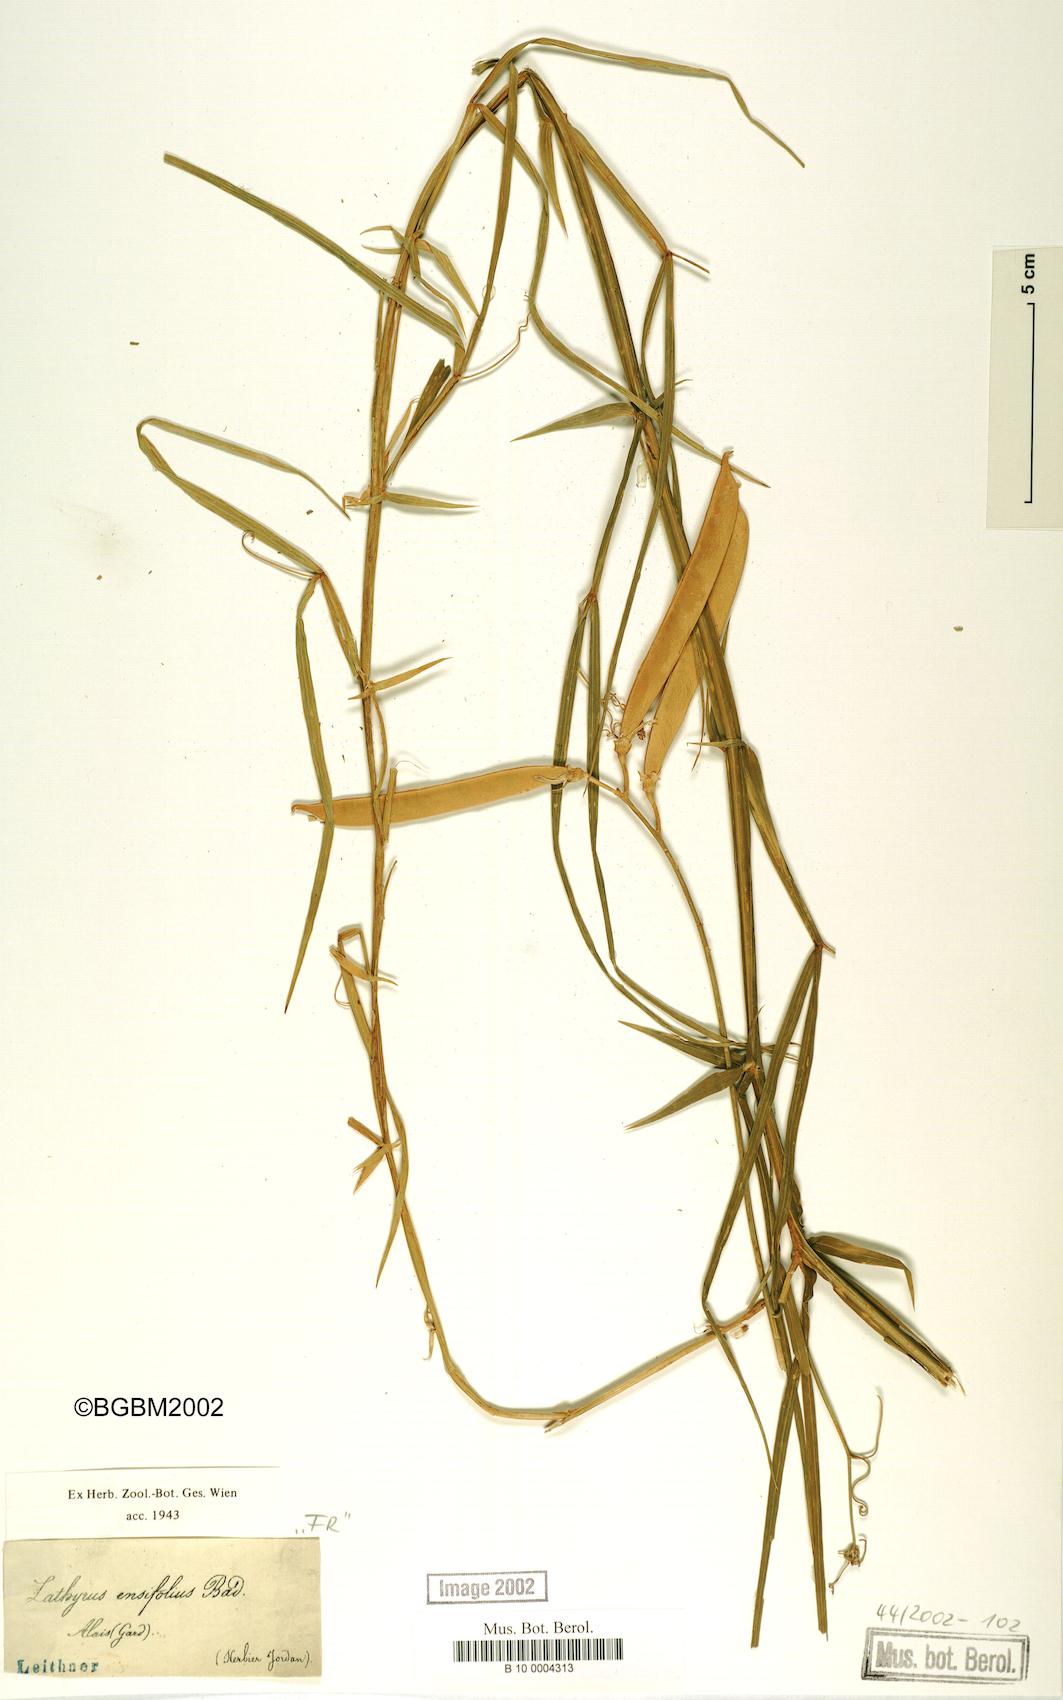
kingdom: Plantae
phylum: Tracheophyta
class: Magnoliopsida
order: Fabales
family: Fabaceae
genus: Lathyrus
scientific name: Lathyrus bauhini
